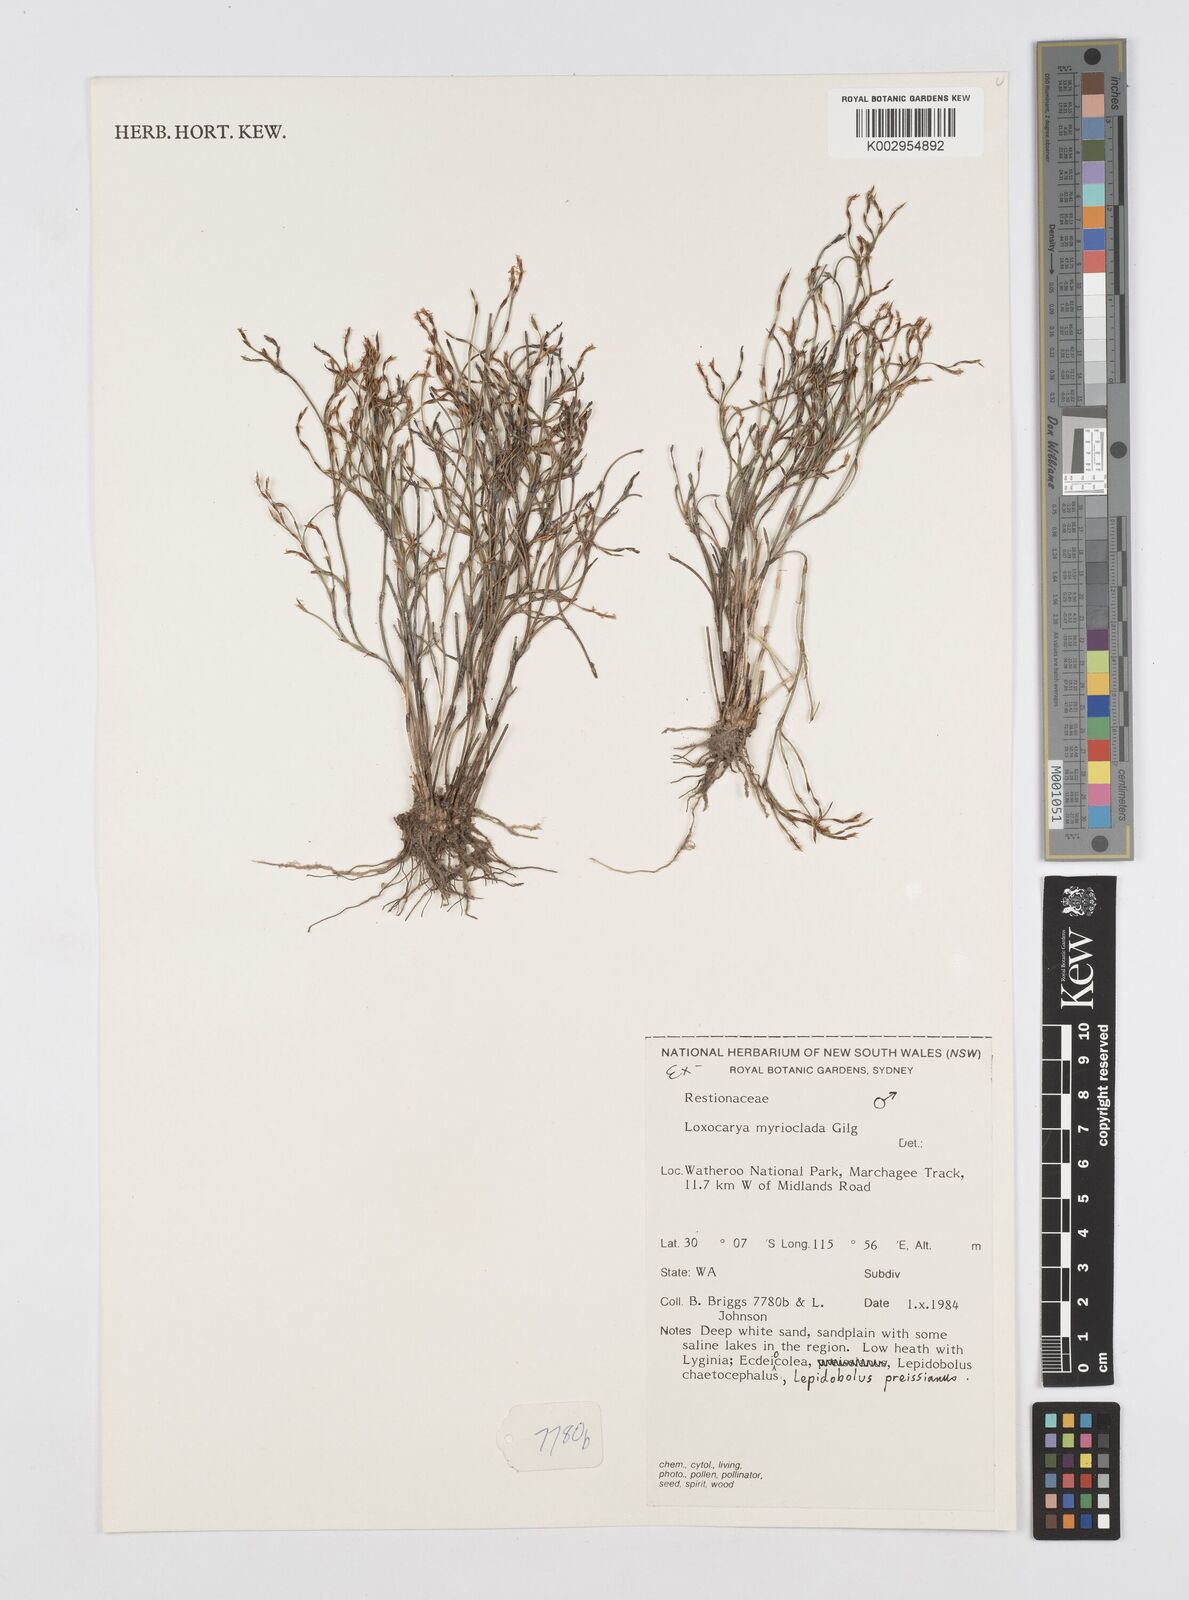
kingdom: Plantae
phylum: Tracheophyta
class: Liliopsida
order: Poales
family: Restionaceae
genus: Desmocladus
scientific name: Desmocladus myriocladus
